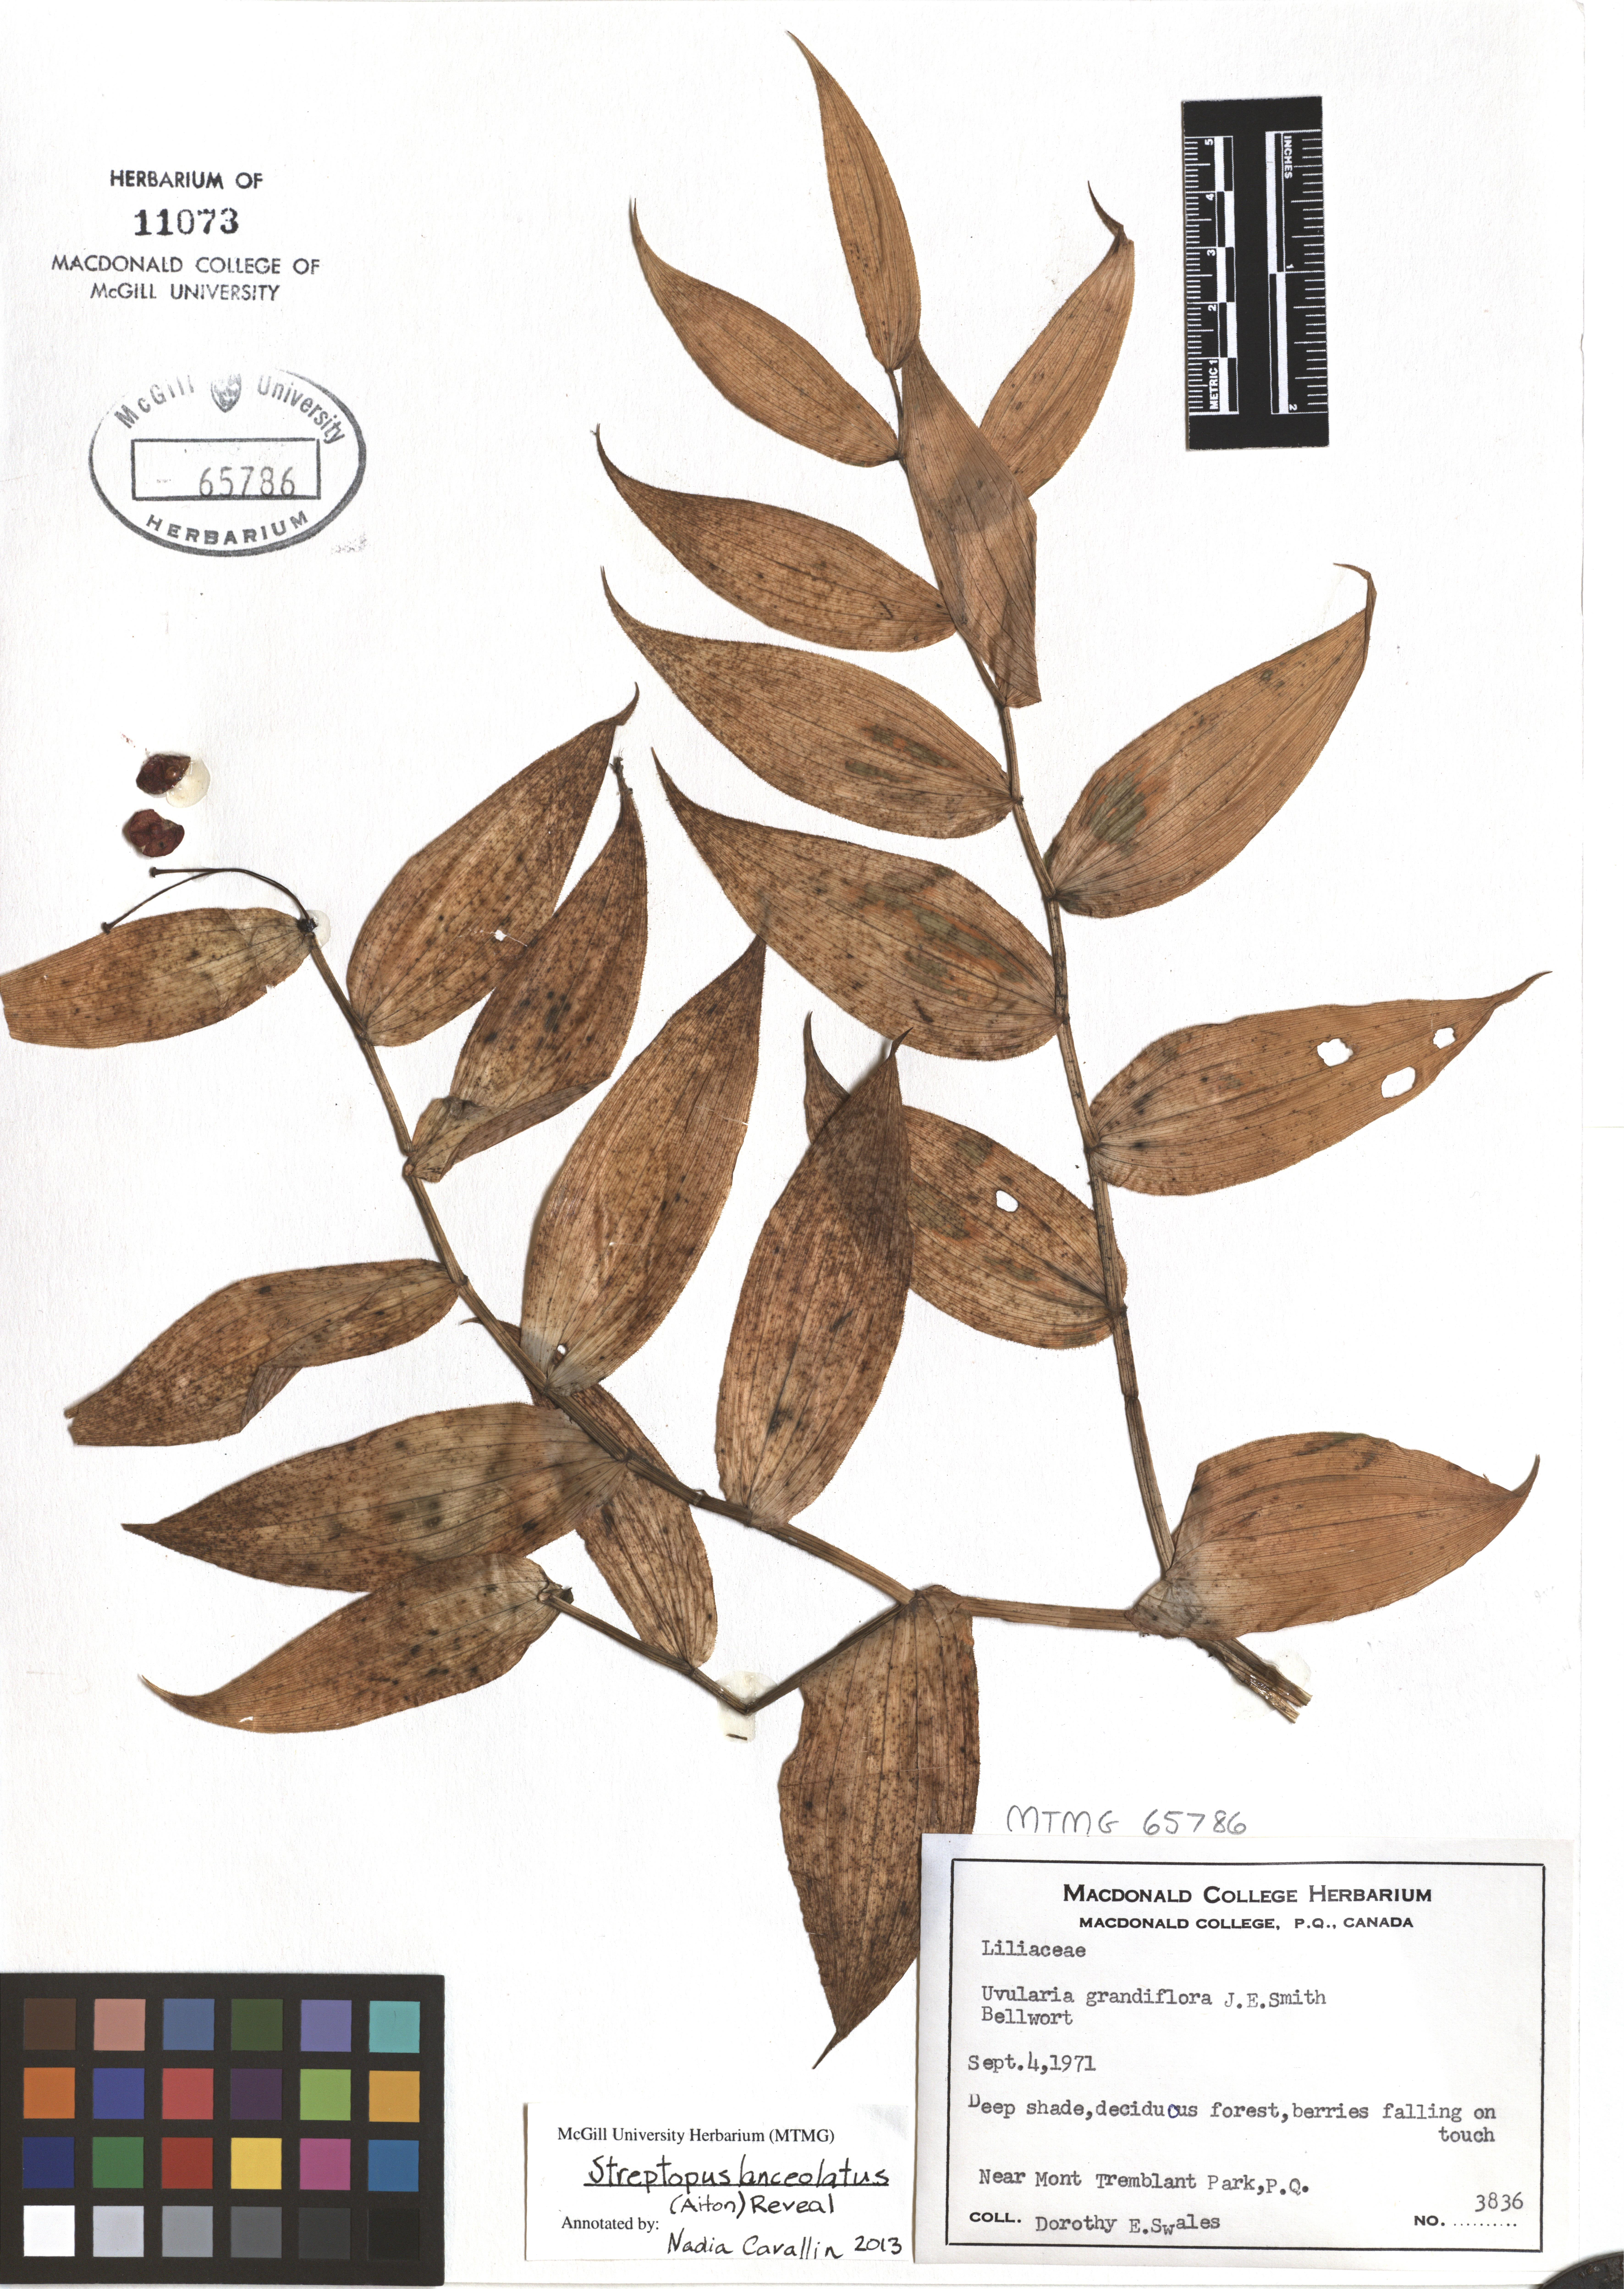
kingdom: Plantae
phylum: Tracheophyta
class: Liliopsida
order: Liliales
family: Liliaceae
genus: Streptopus
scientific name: Streptopus lanceolatus
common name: Rose mandarin
